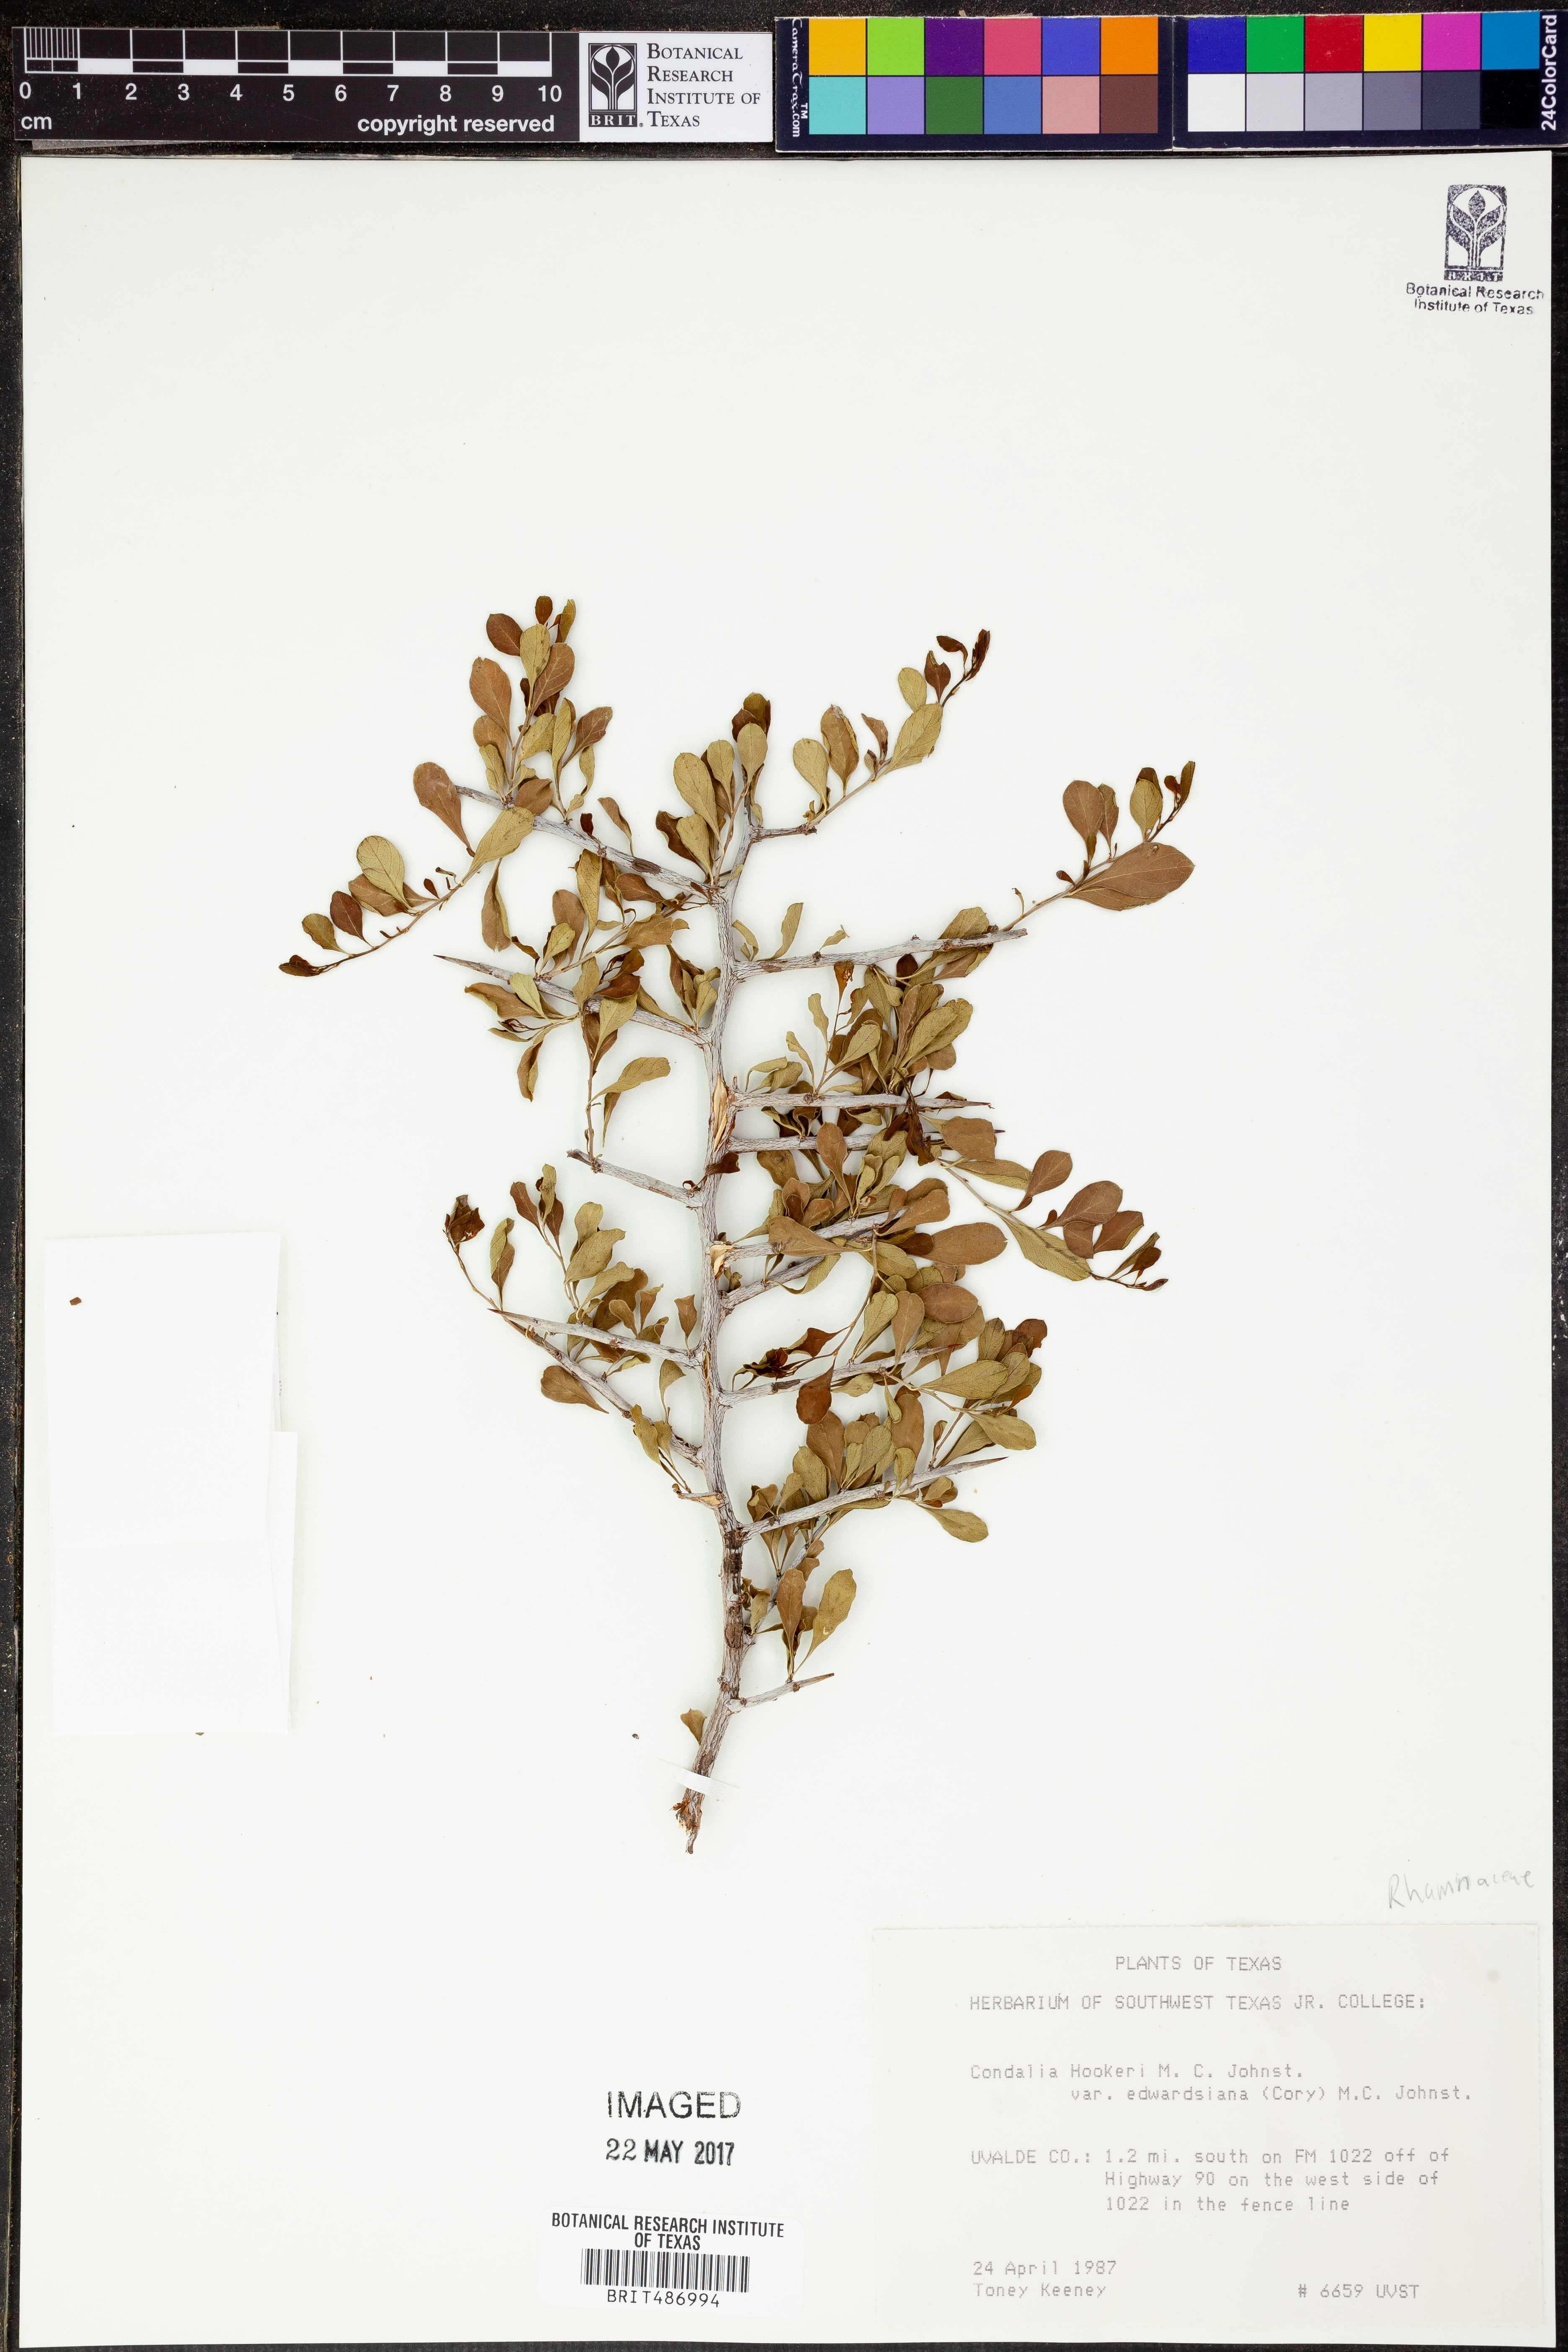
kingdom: Plantae
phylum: Tracheophyta
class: Magnoliopsida
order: Rosales
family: Rhamnaceae
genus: Condalia
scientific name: Condalia hookeri
